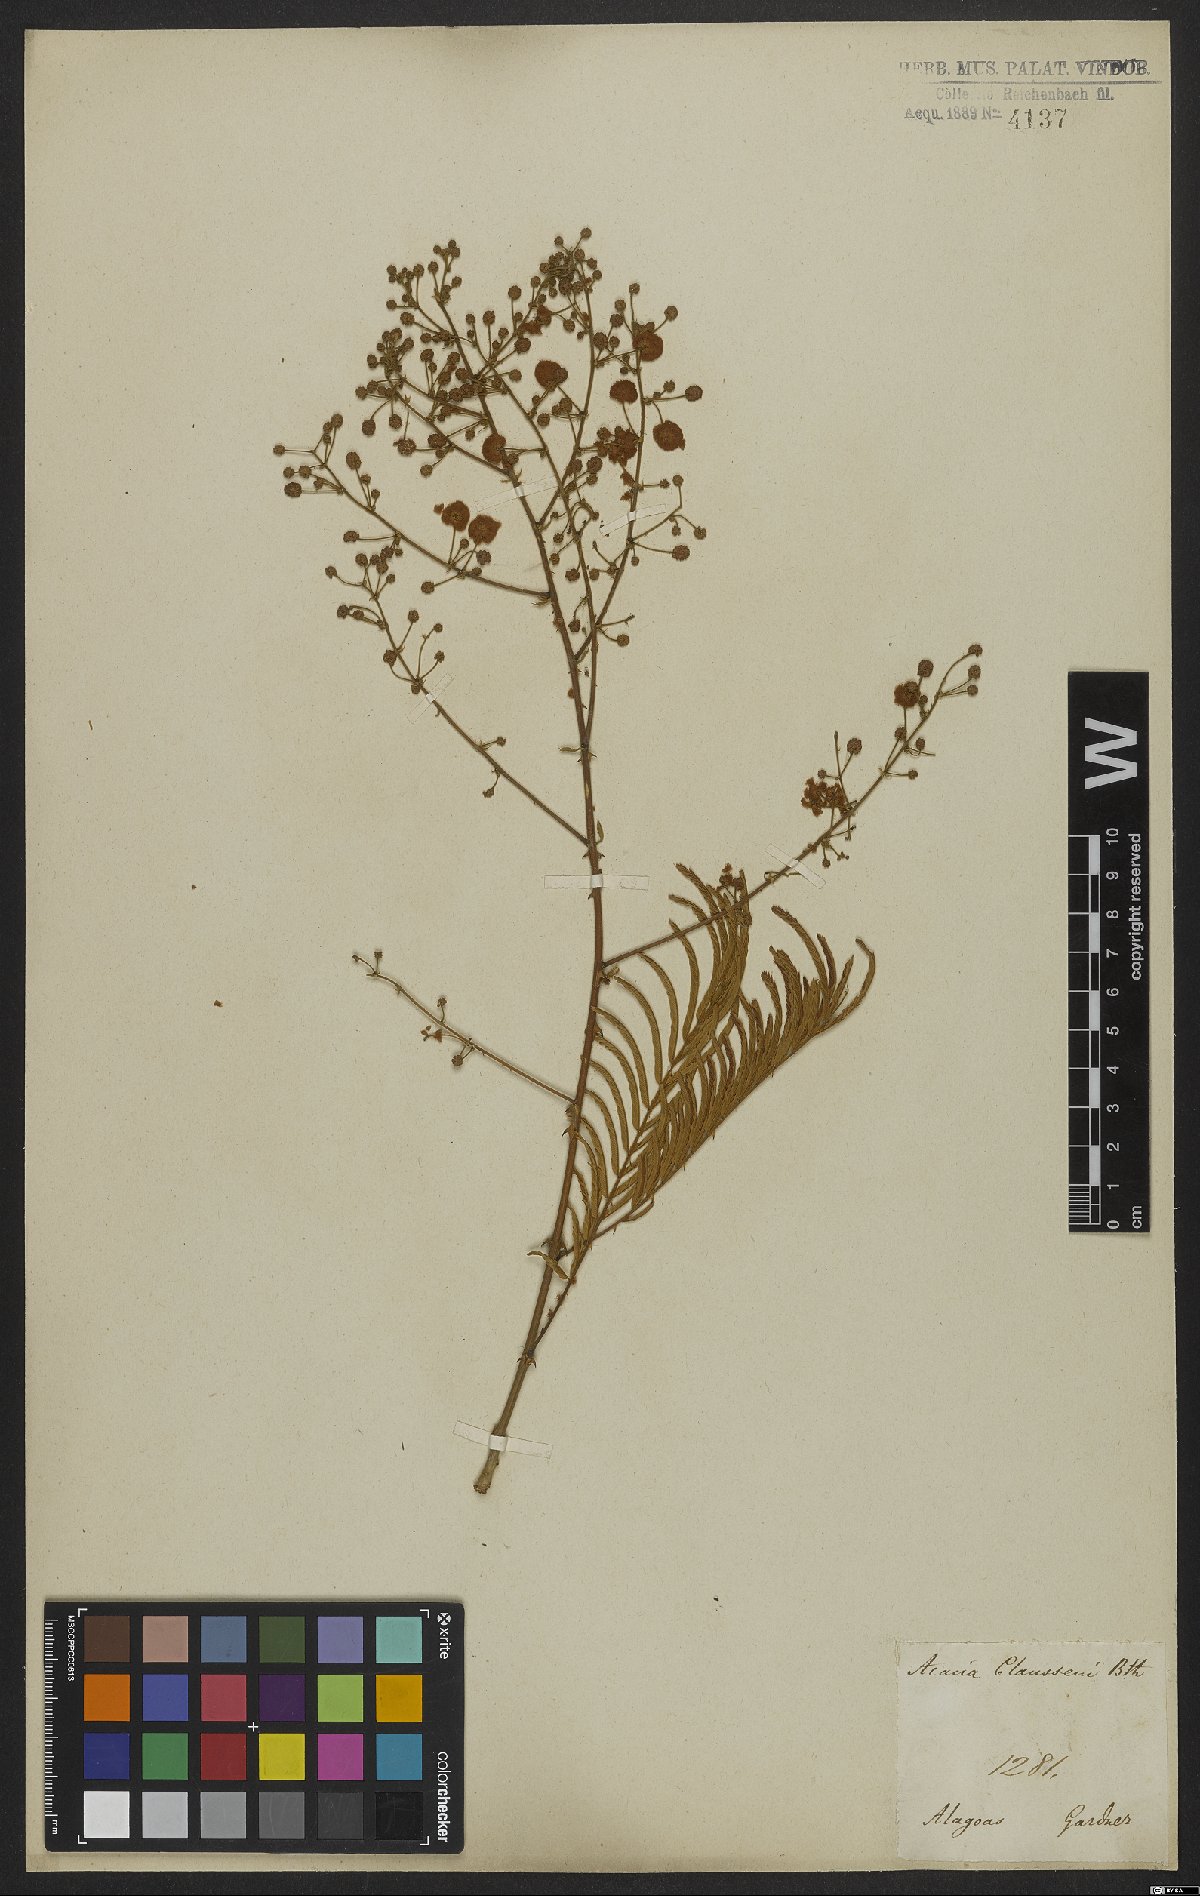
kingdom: Plantae
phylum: Tracheophyta
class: Magnoliopsida
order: Fabales
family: Fabaceae
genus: Senegalia
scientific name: Senegalia paniculata
